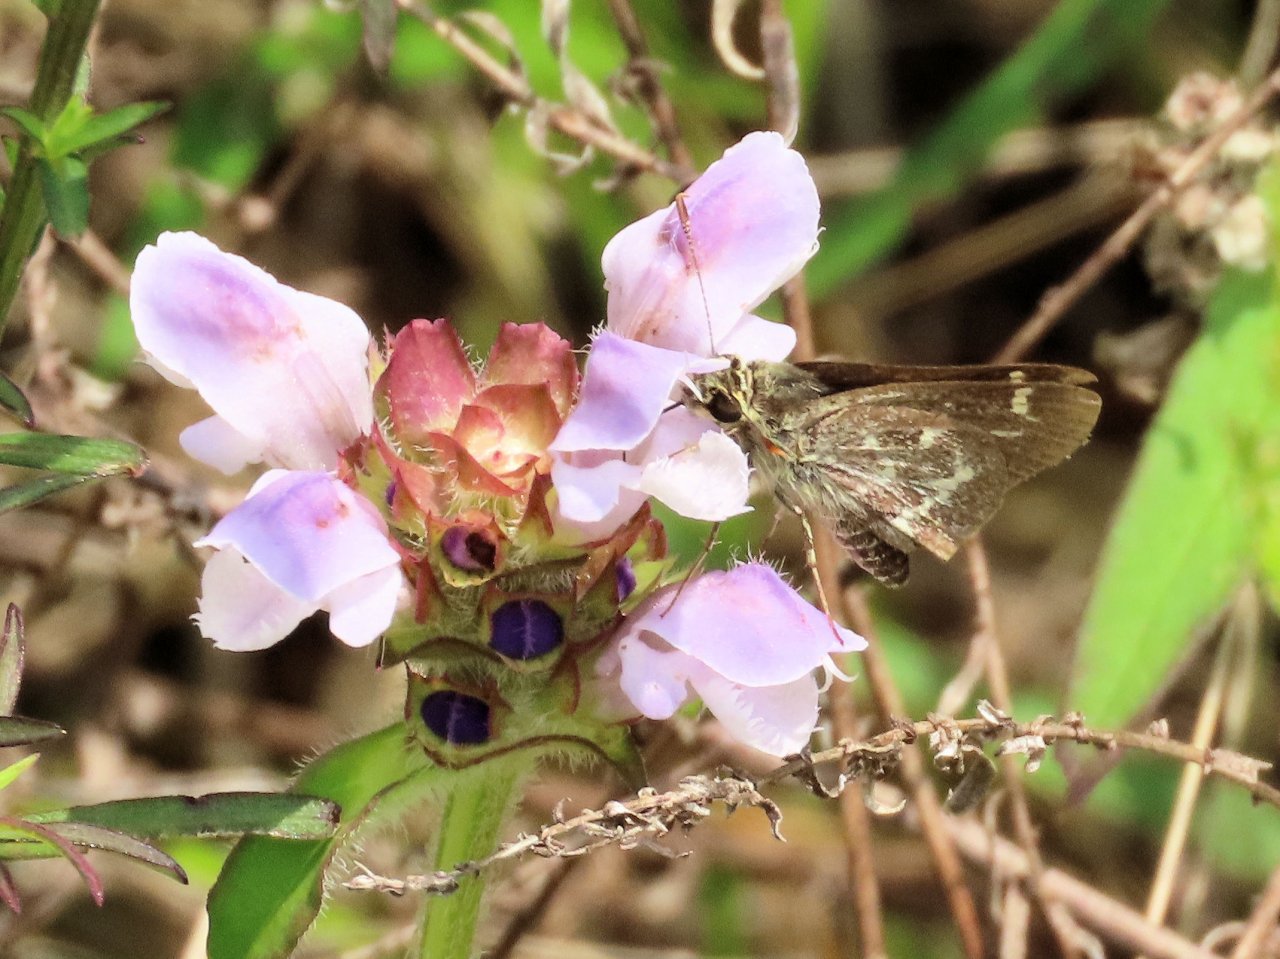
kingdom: Animalia
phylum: Arthropoda
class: Insecta
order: Lepidoptera
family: Hesperiidae
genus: Mastor
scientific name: Mastor aesculapius
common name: Lace-winged Roadside-Skipper
